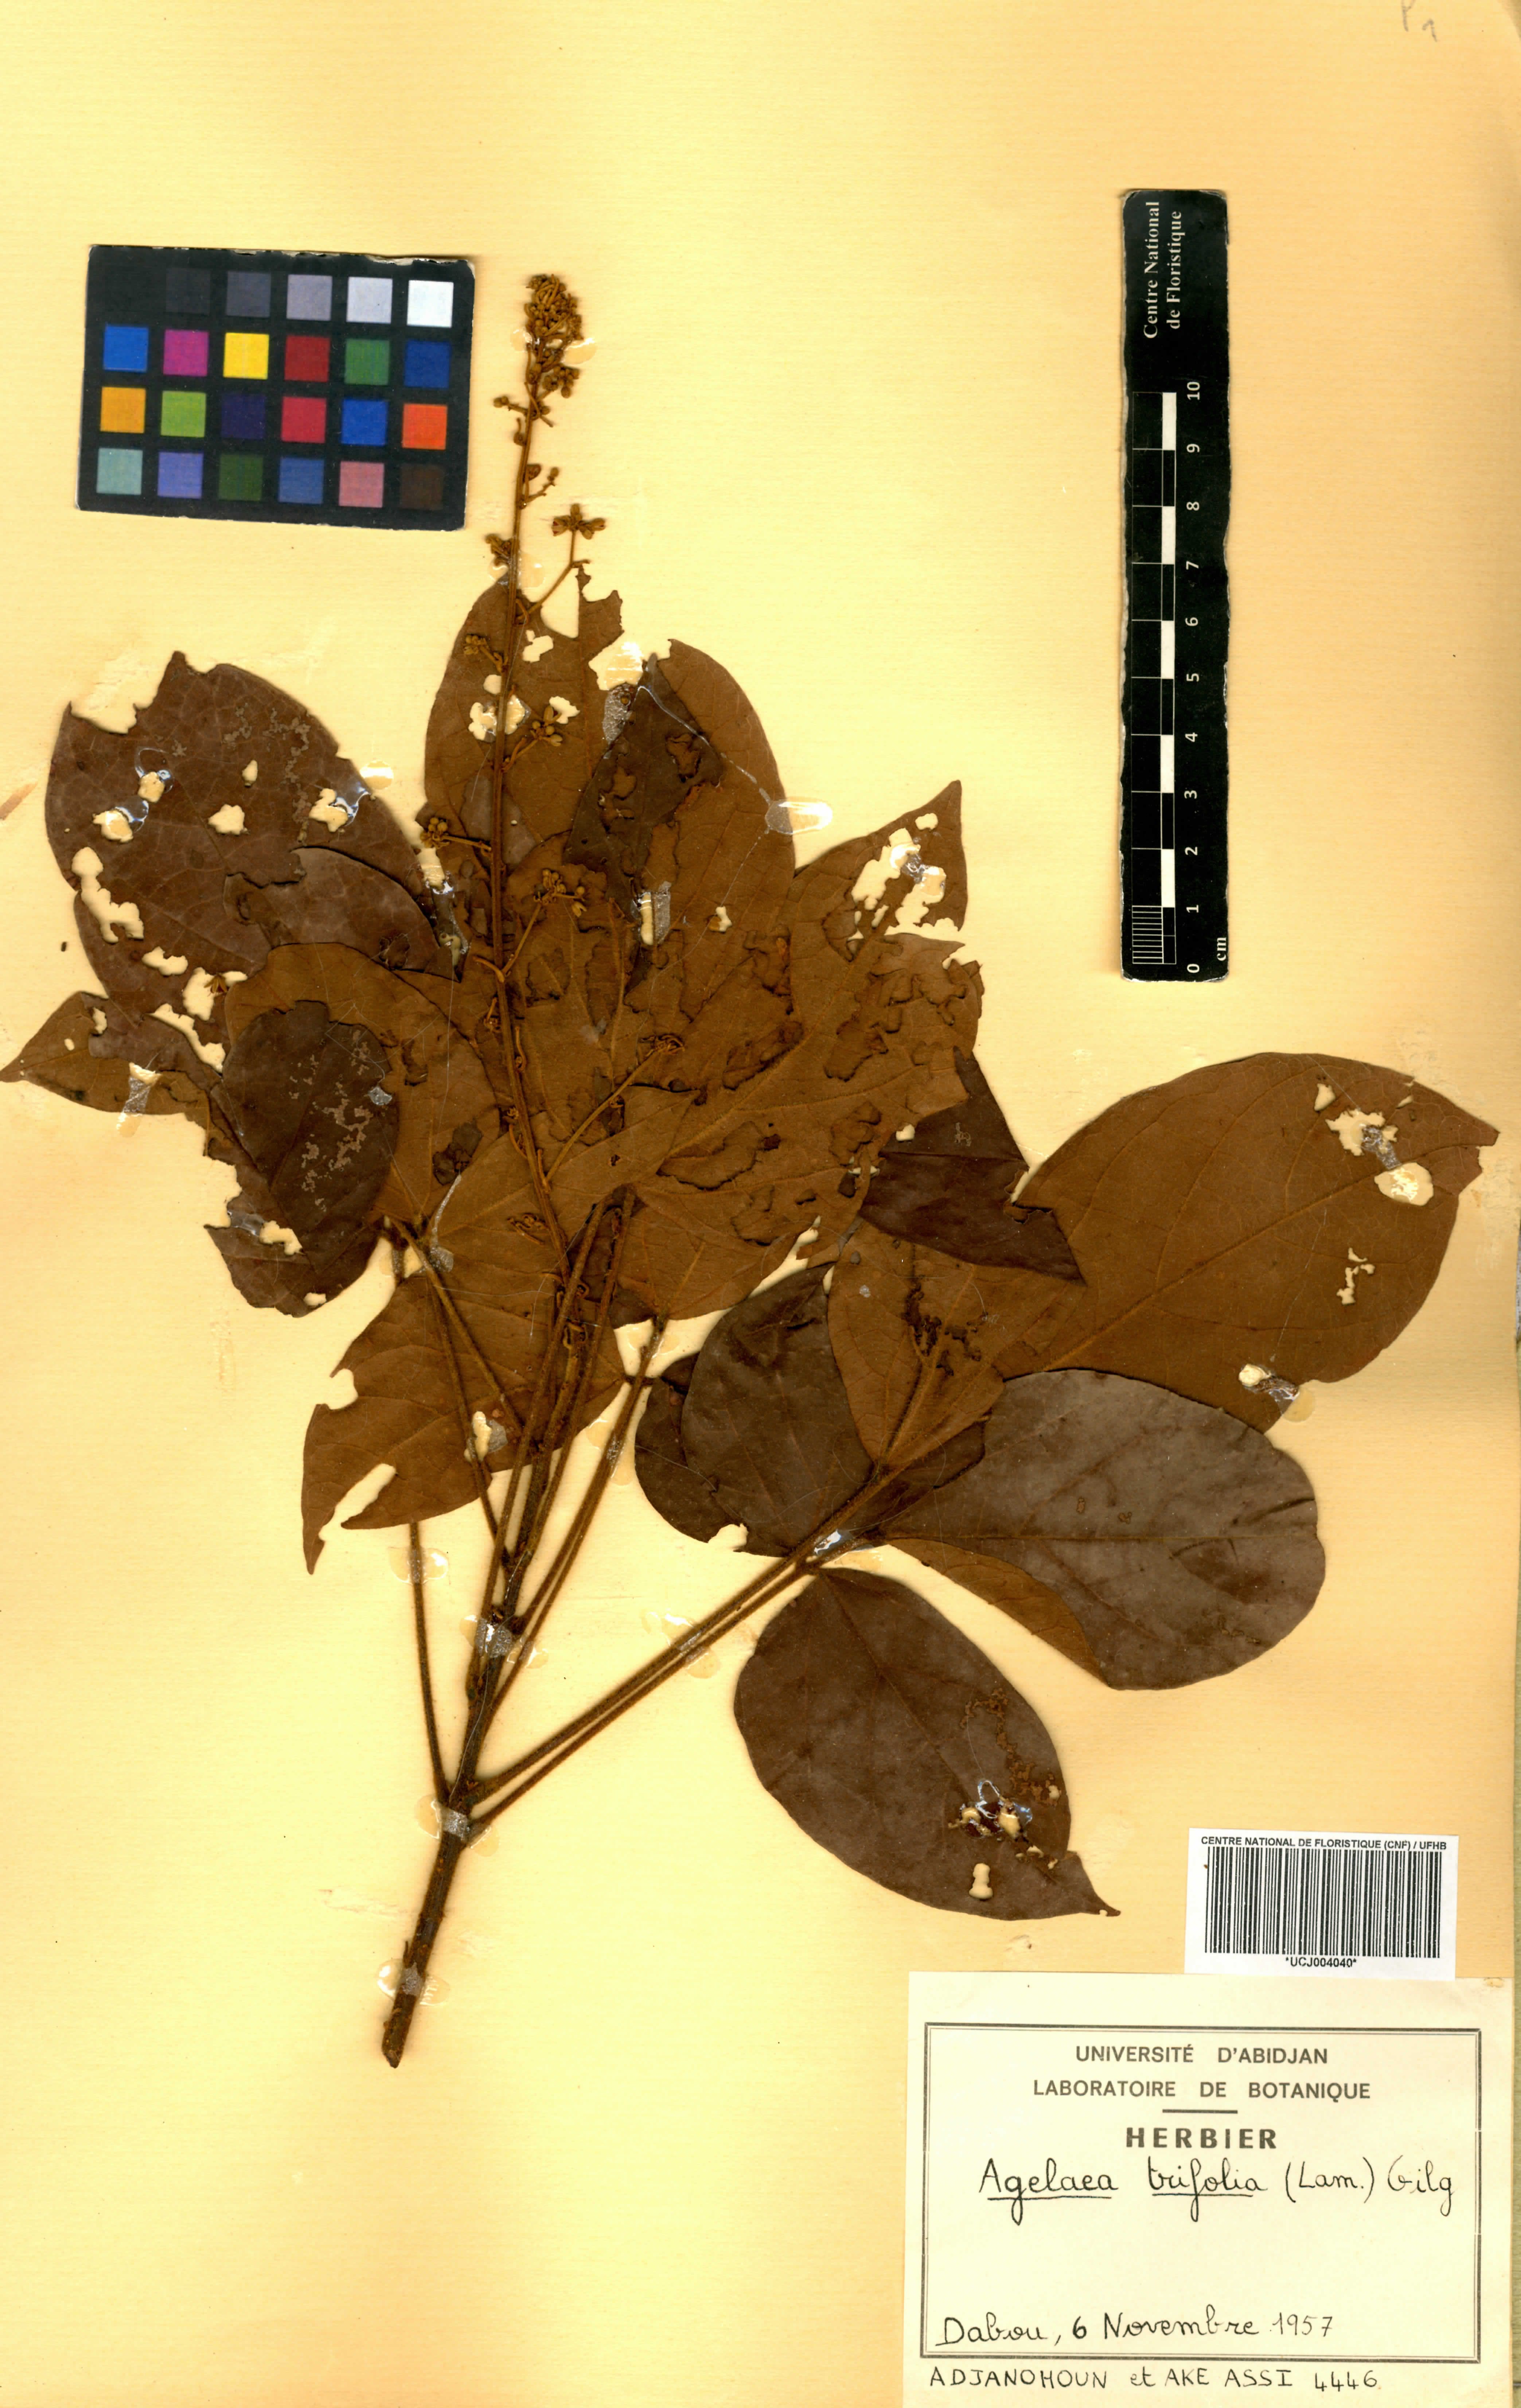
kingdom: Plantae
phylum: Tracheophyta
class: Magnoliopsida
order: Oxalidales
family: Connaraceae
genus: Agelaea
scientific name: Agelaea pentagyna
